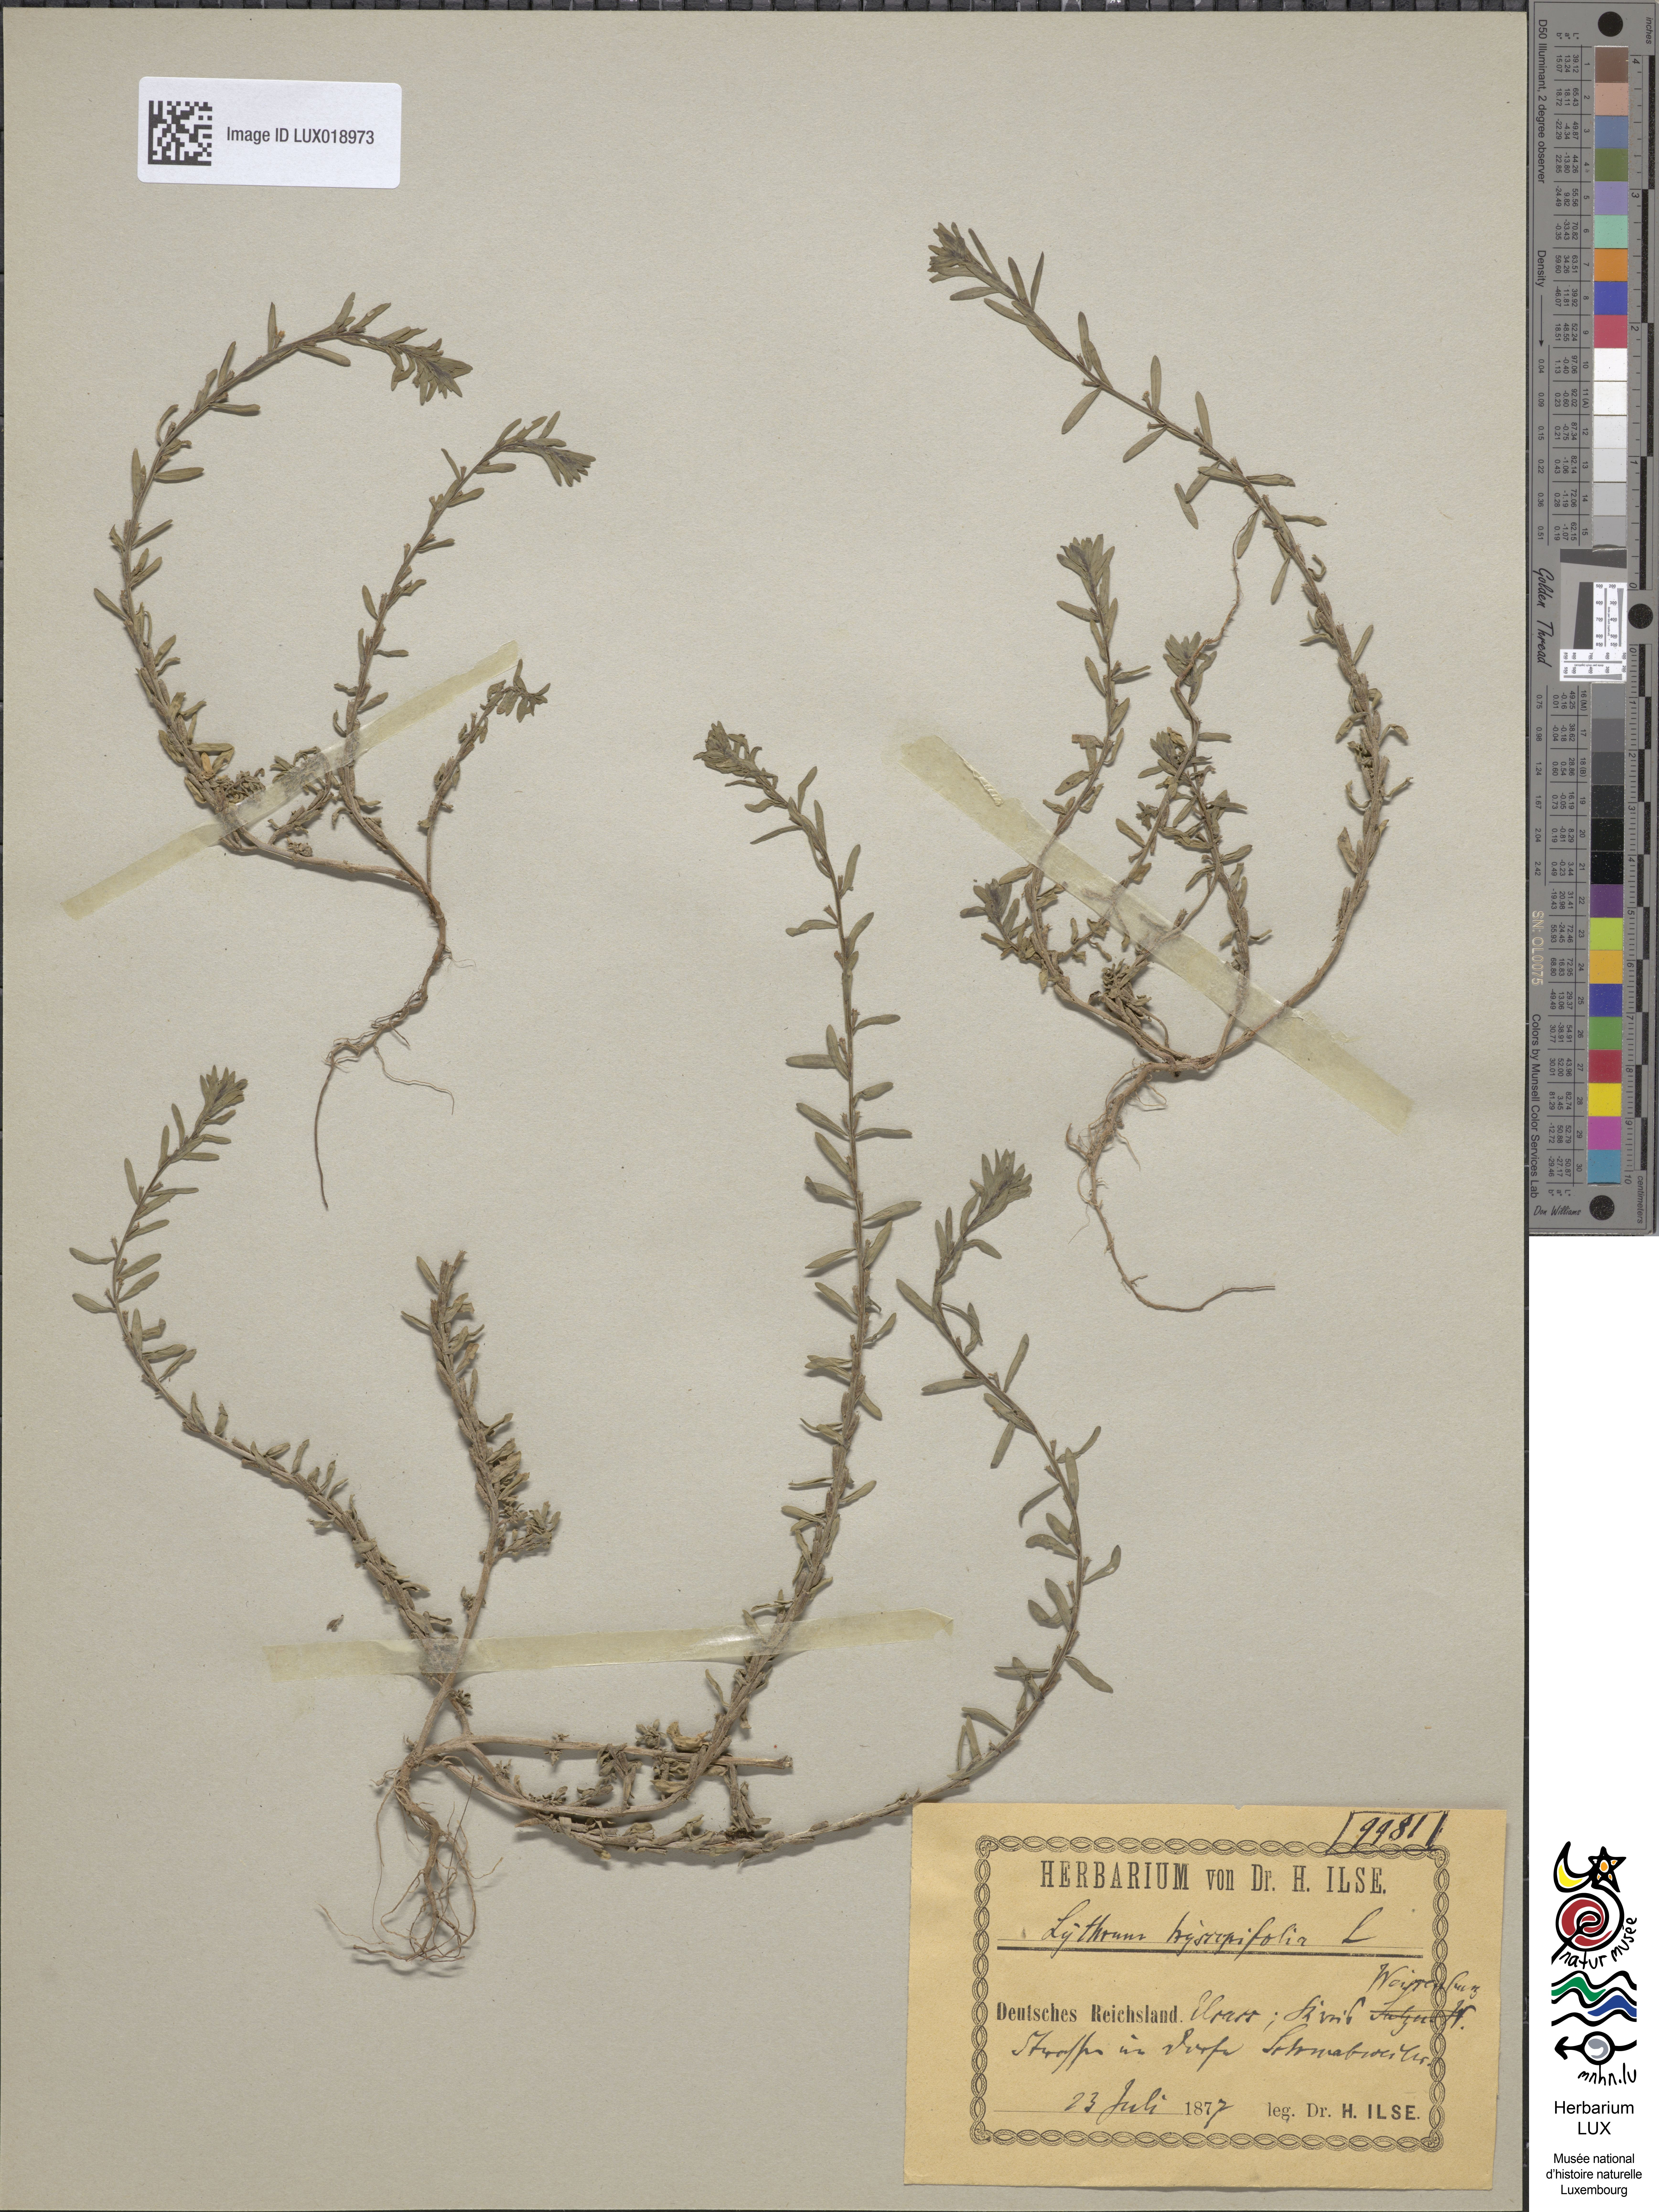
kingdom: Plantae
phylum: Tracheophyta
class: Magnoliopsida
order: Myrtales
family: Lythraceae
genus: Lythrum
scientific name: Lythrum hyssopifolia
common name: Grass-poly
